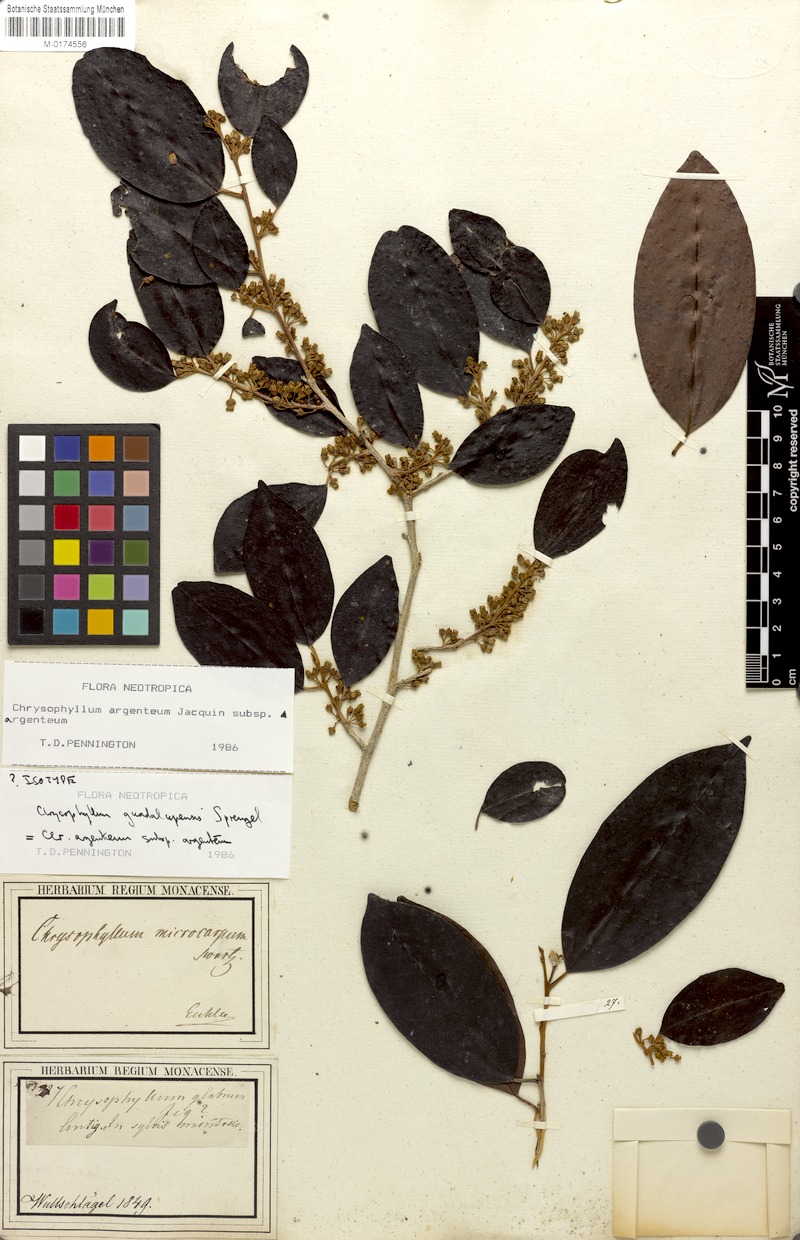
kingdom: Plantae
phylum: Tracheophyta
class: Magnoliopsida
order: Ericales
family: Sapotaceae
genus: Chrysophyllum
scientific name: Chrysophyllum argenteum
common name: Smooth star apple
